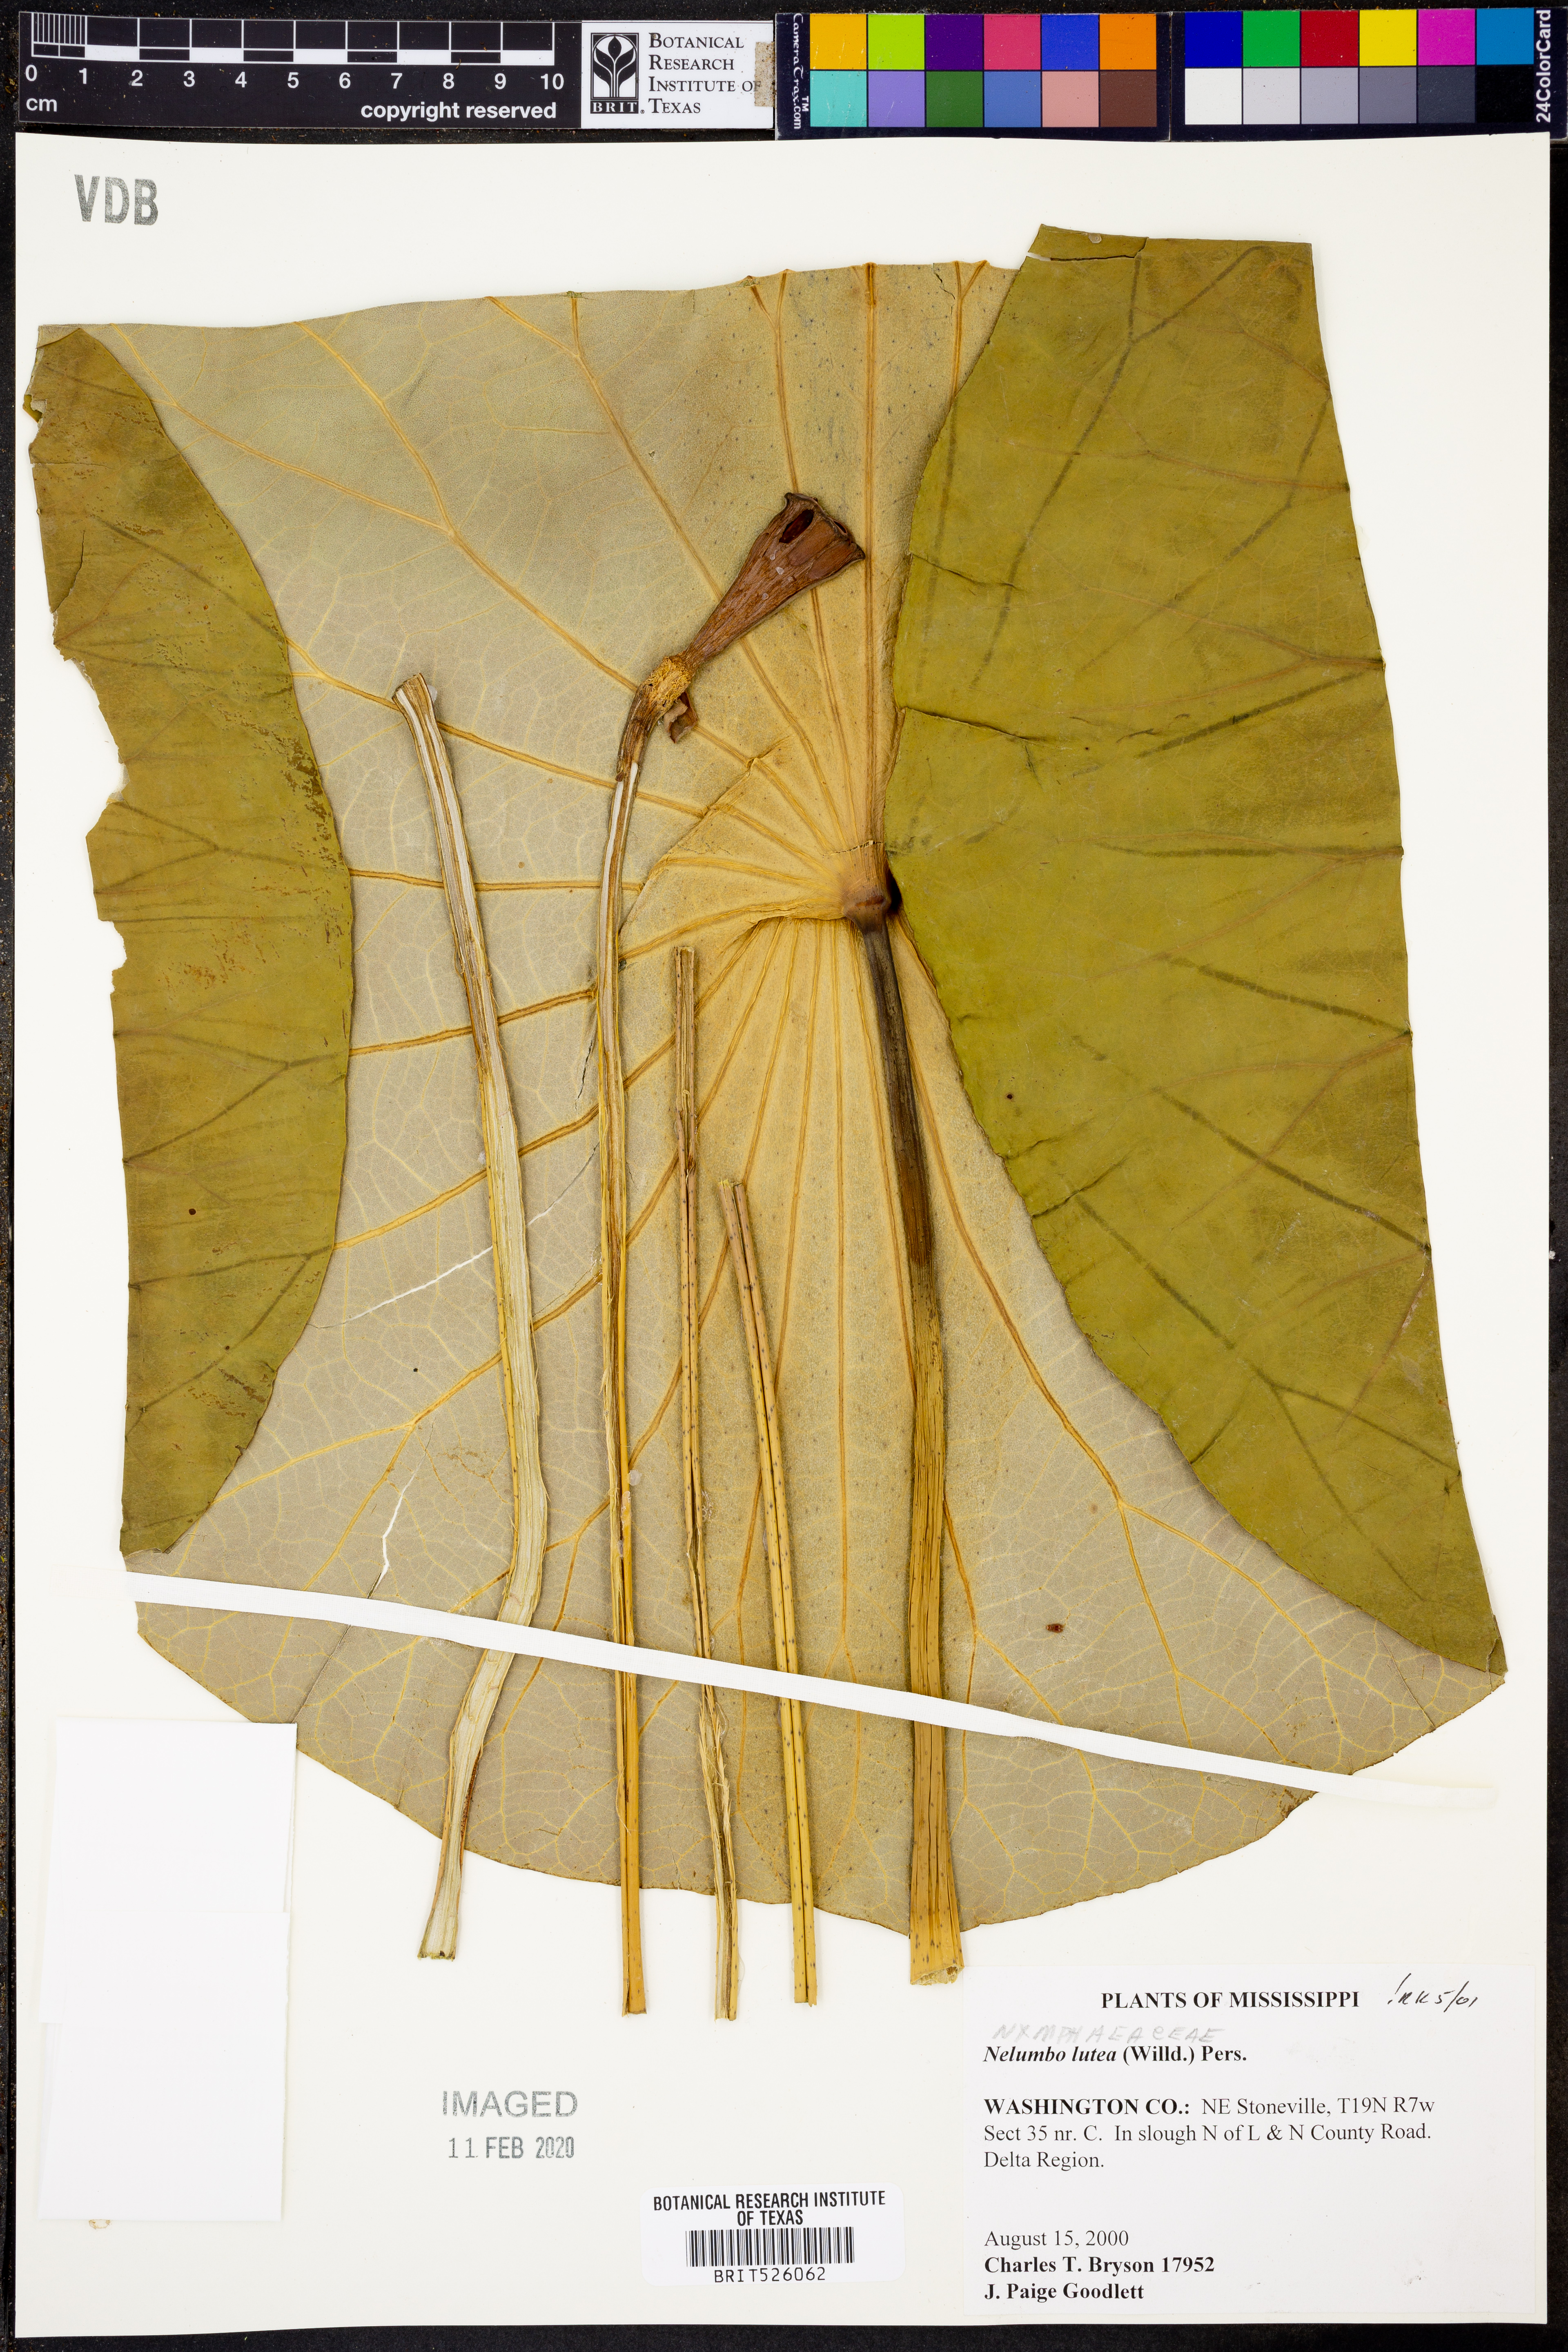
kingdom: Plantae
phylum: Tracheophyta
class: Magnoliopsida
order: Proteales
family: Nelumbonaceae
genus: Nelumbo
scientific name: Nelumbo lutea
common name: American lotus
